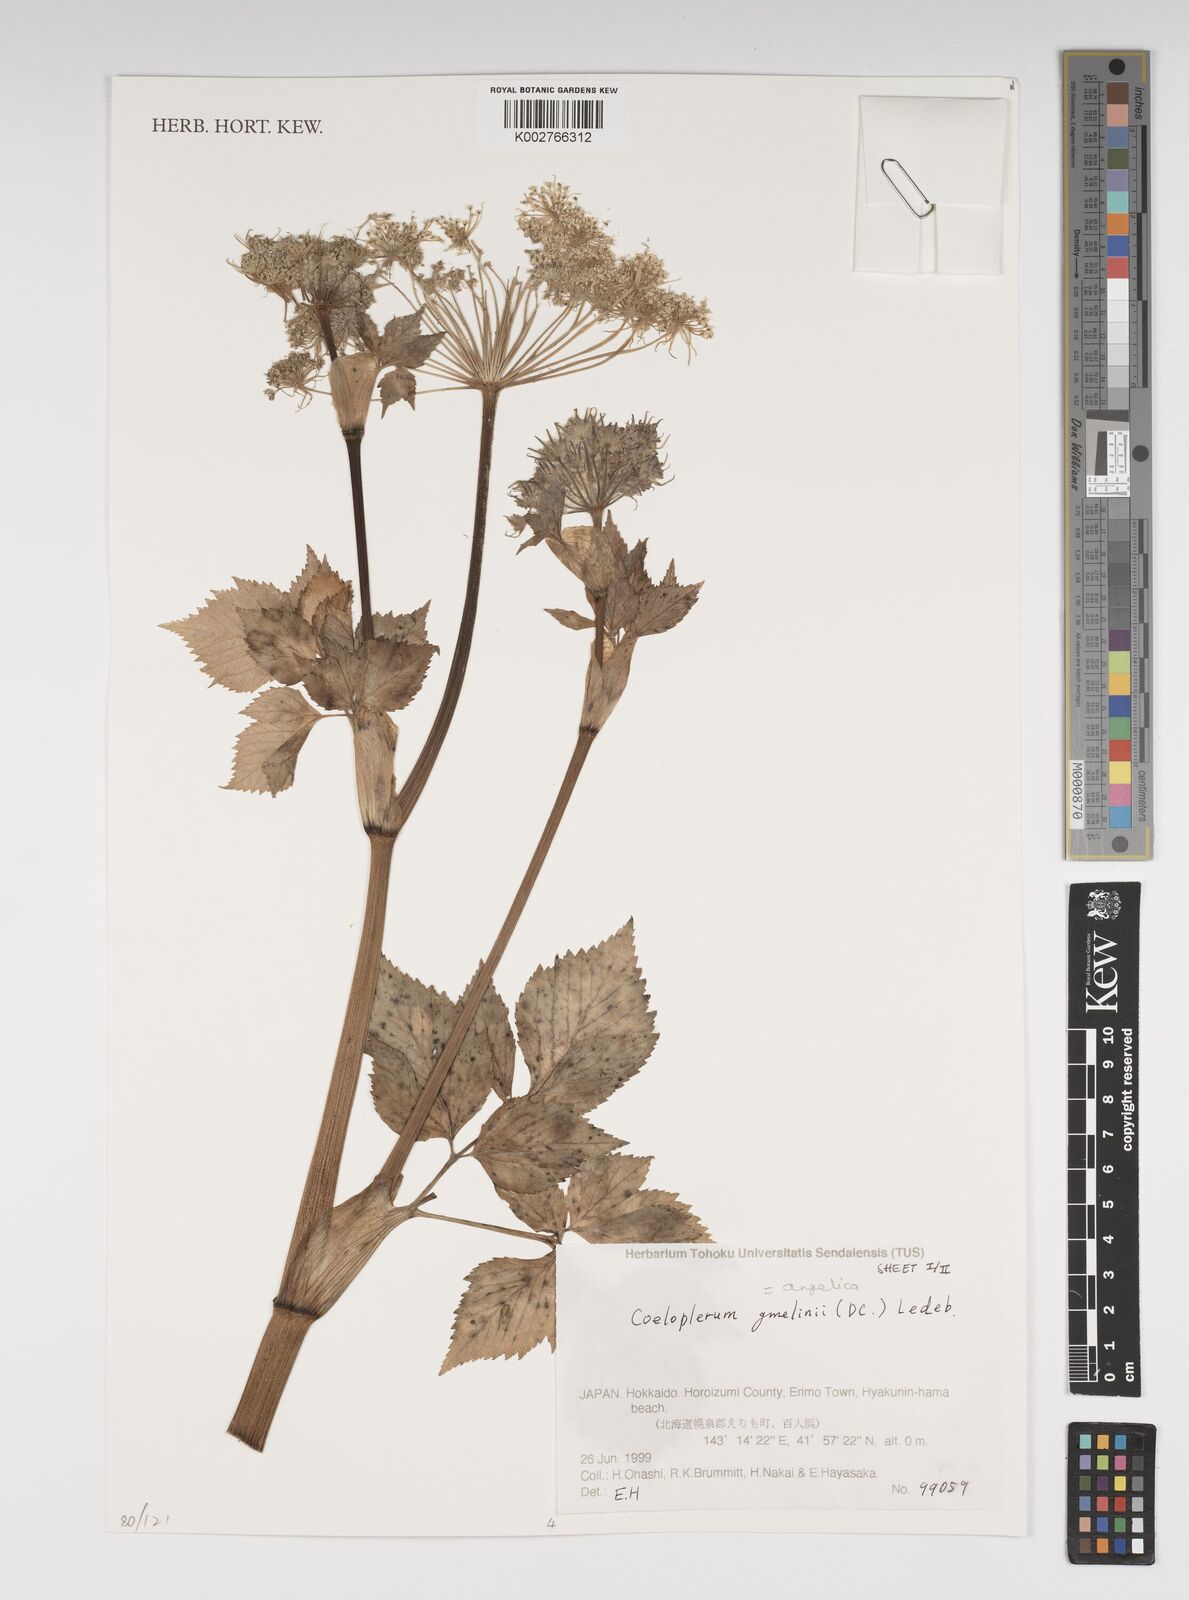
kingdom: Plantae
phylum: Tracheophyta
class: Magnoliopsida
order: Apiales
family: Apiaceae
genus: Angelica
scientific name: Angelica gmelinii
